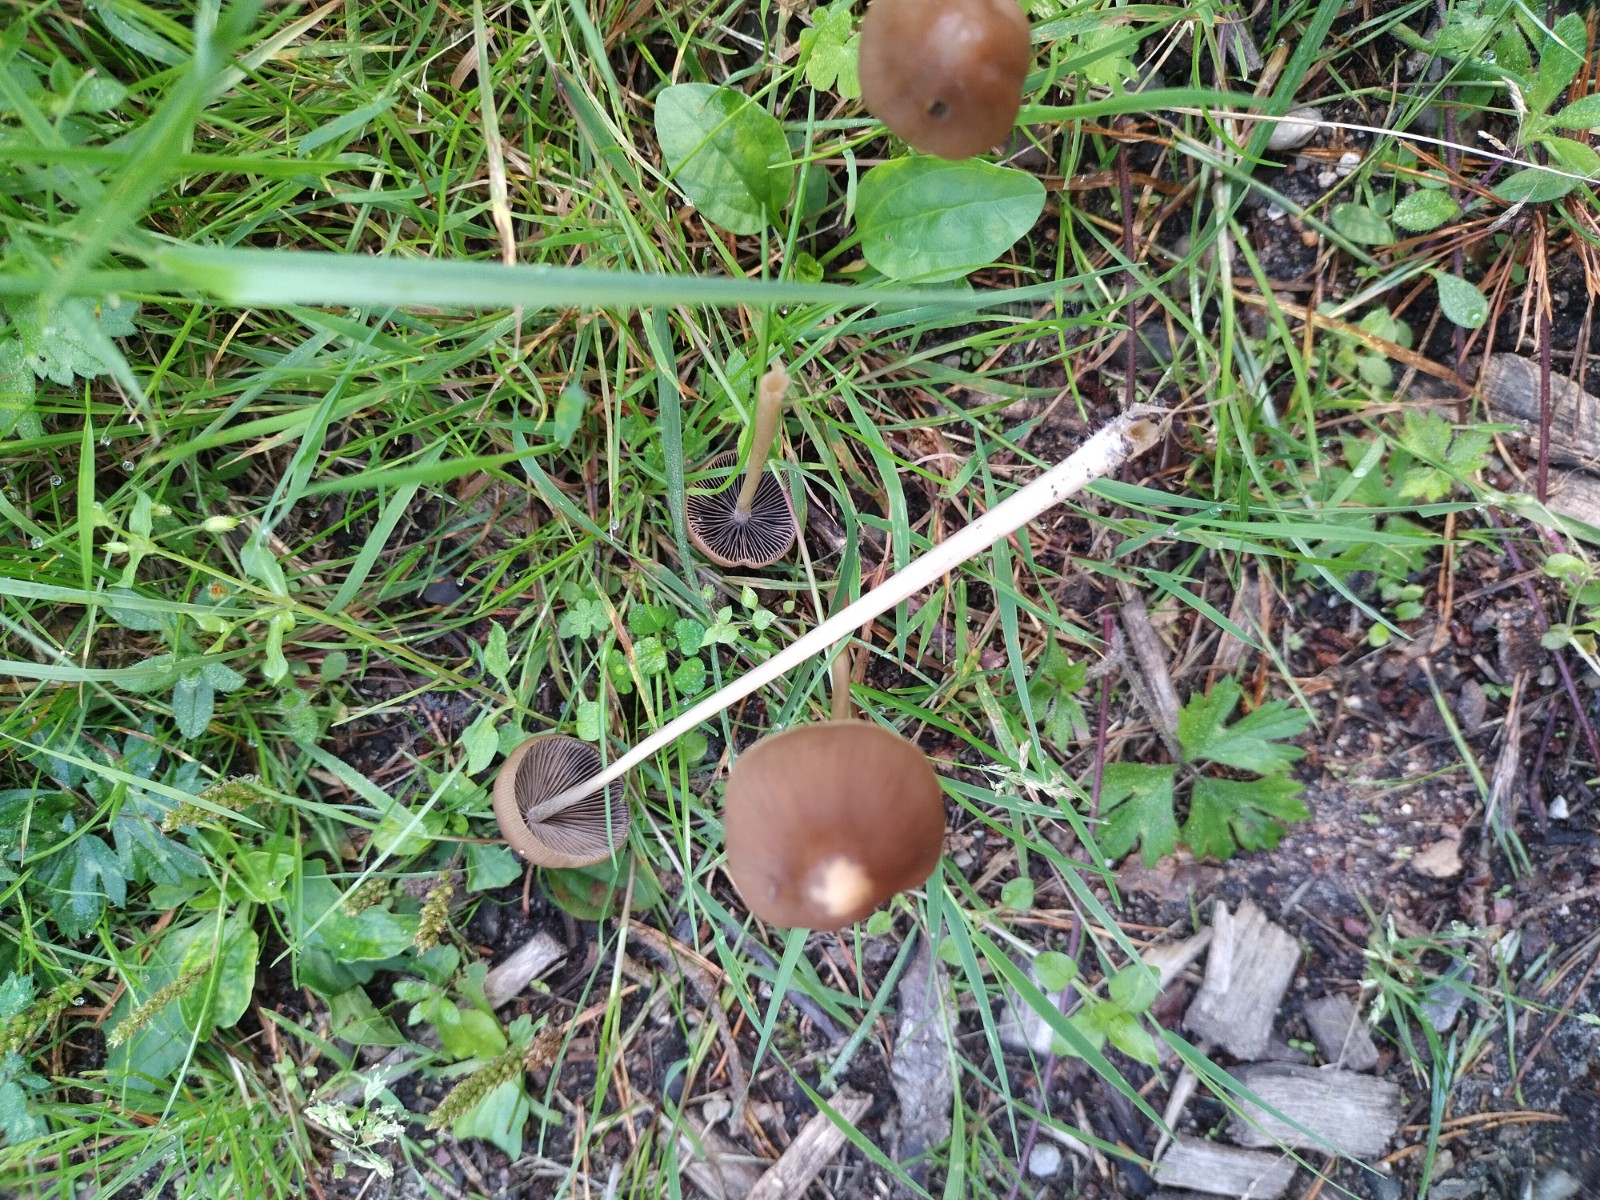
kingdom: Fungi
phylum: Basidiomycota
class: Agaricomycetes
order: Agaricales
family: Psathyrellaceae
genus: Parasola
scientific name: Parasola conopilea
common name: kegle-hjulhat
